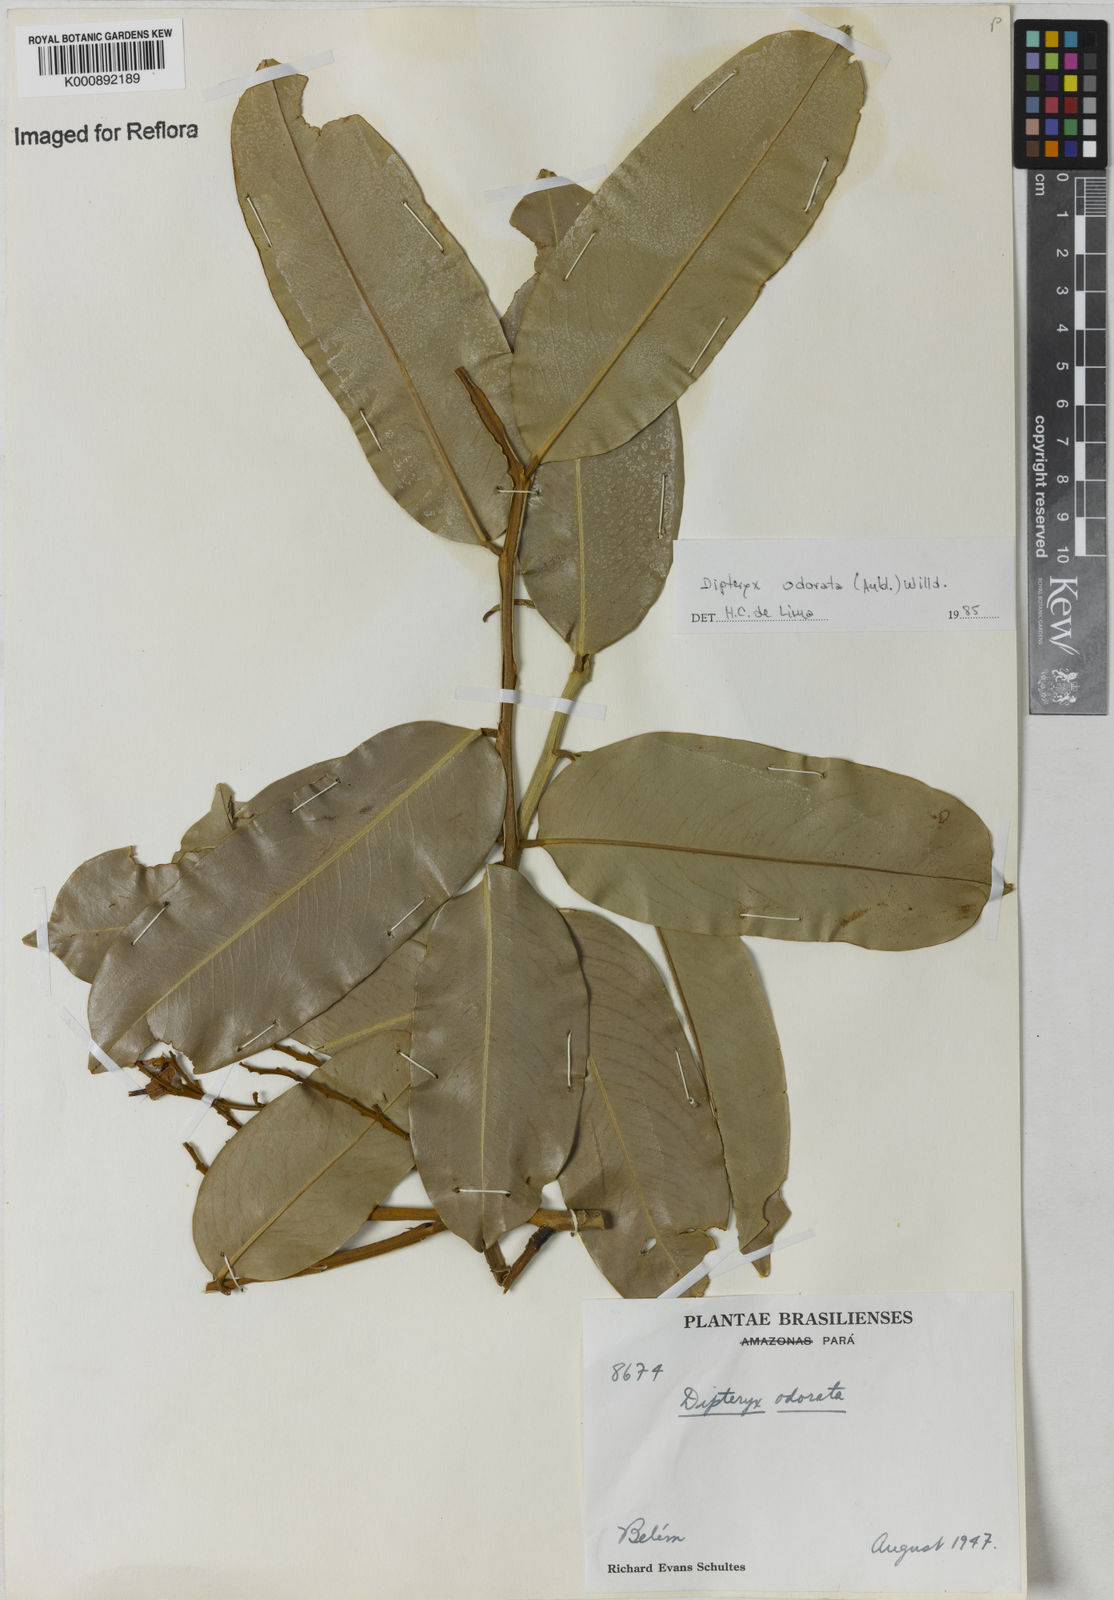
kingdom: Plantae
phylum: Tracheophyta
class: Magnoliopsida
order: Fabales
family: Fabaceae
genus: Dipteryx
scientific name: Dipteryx
